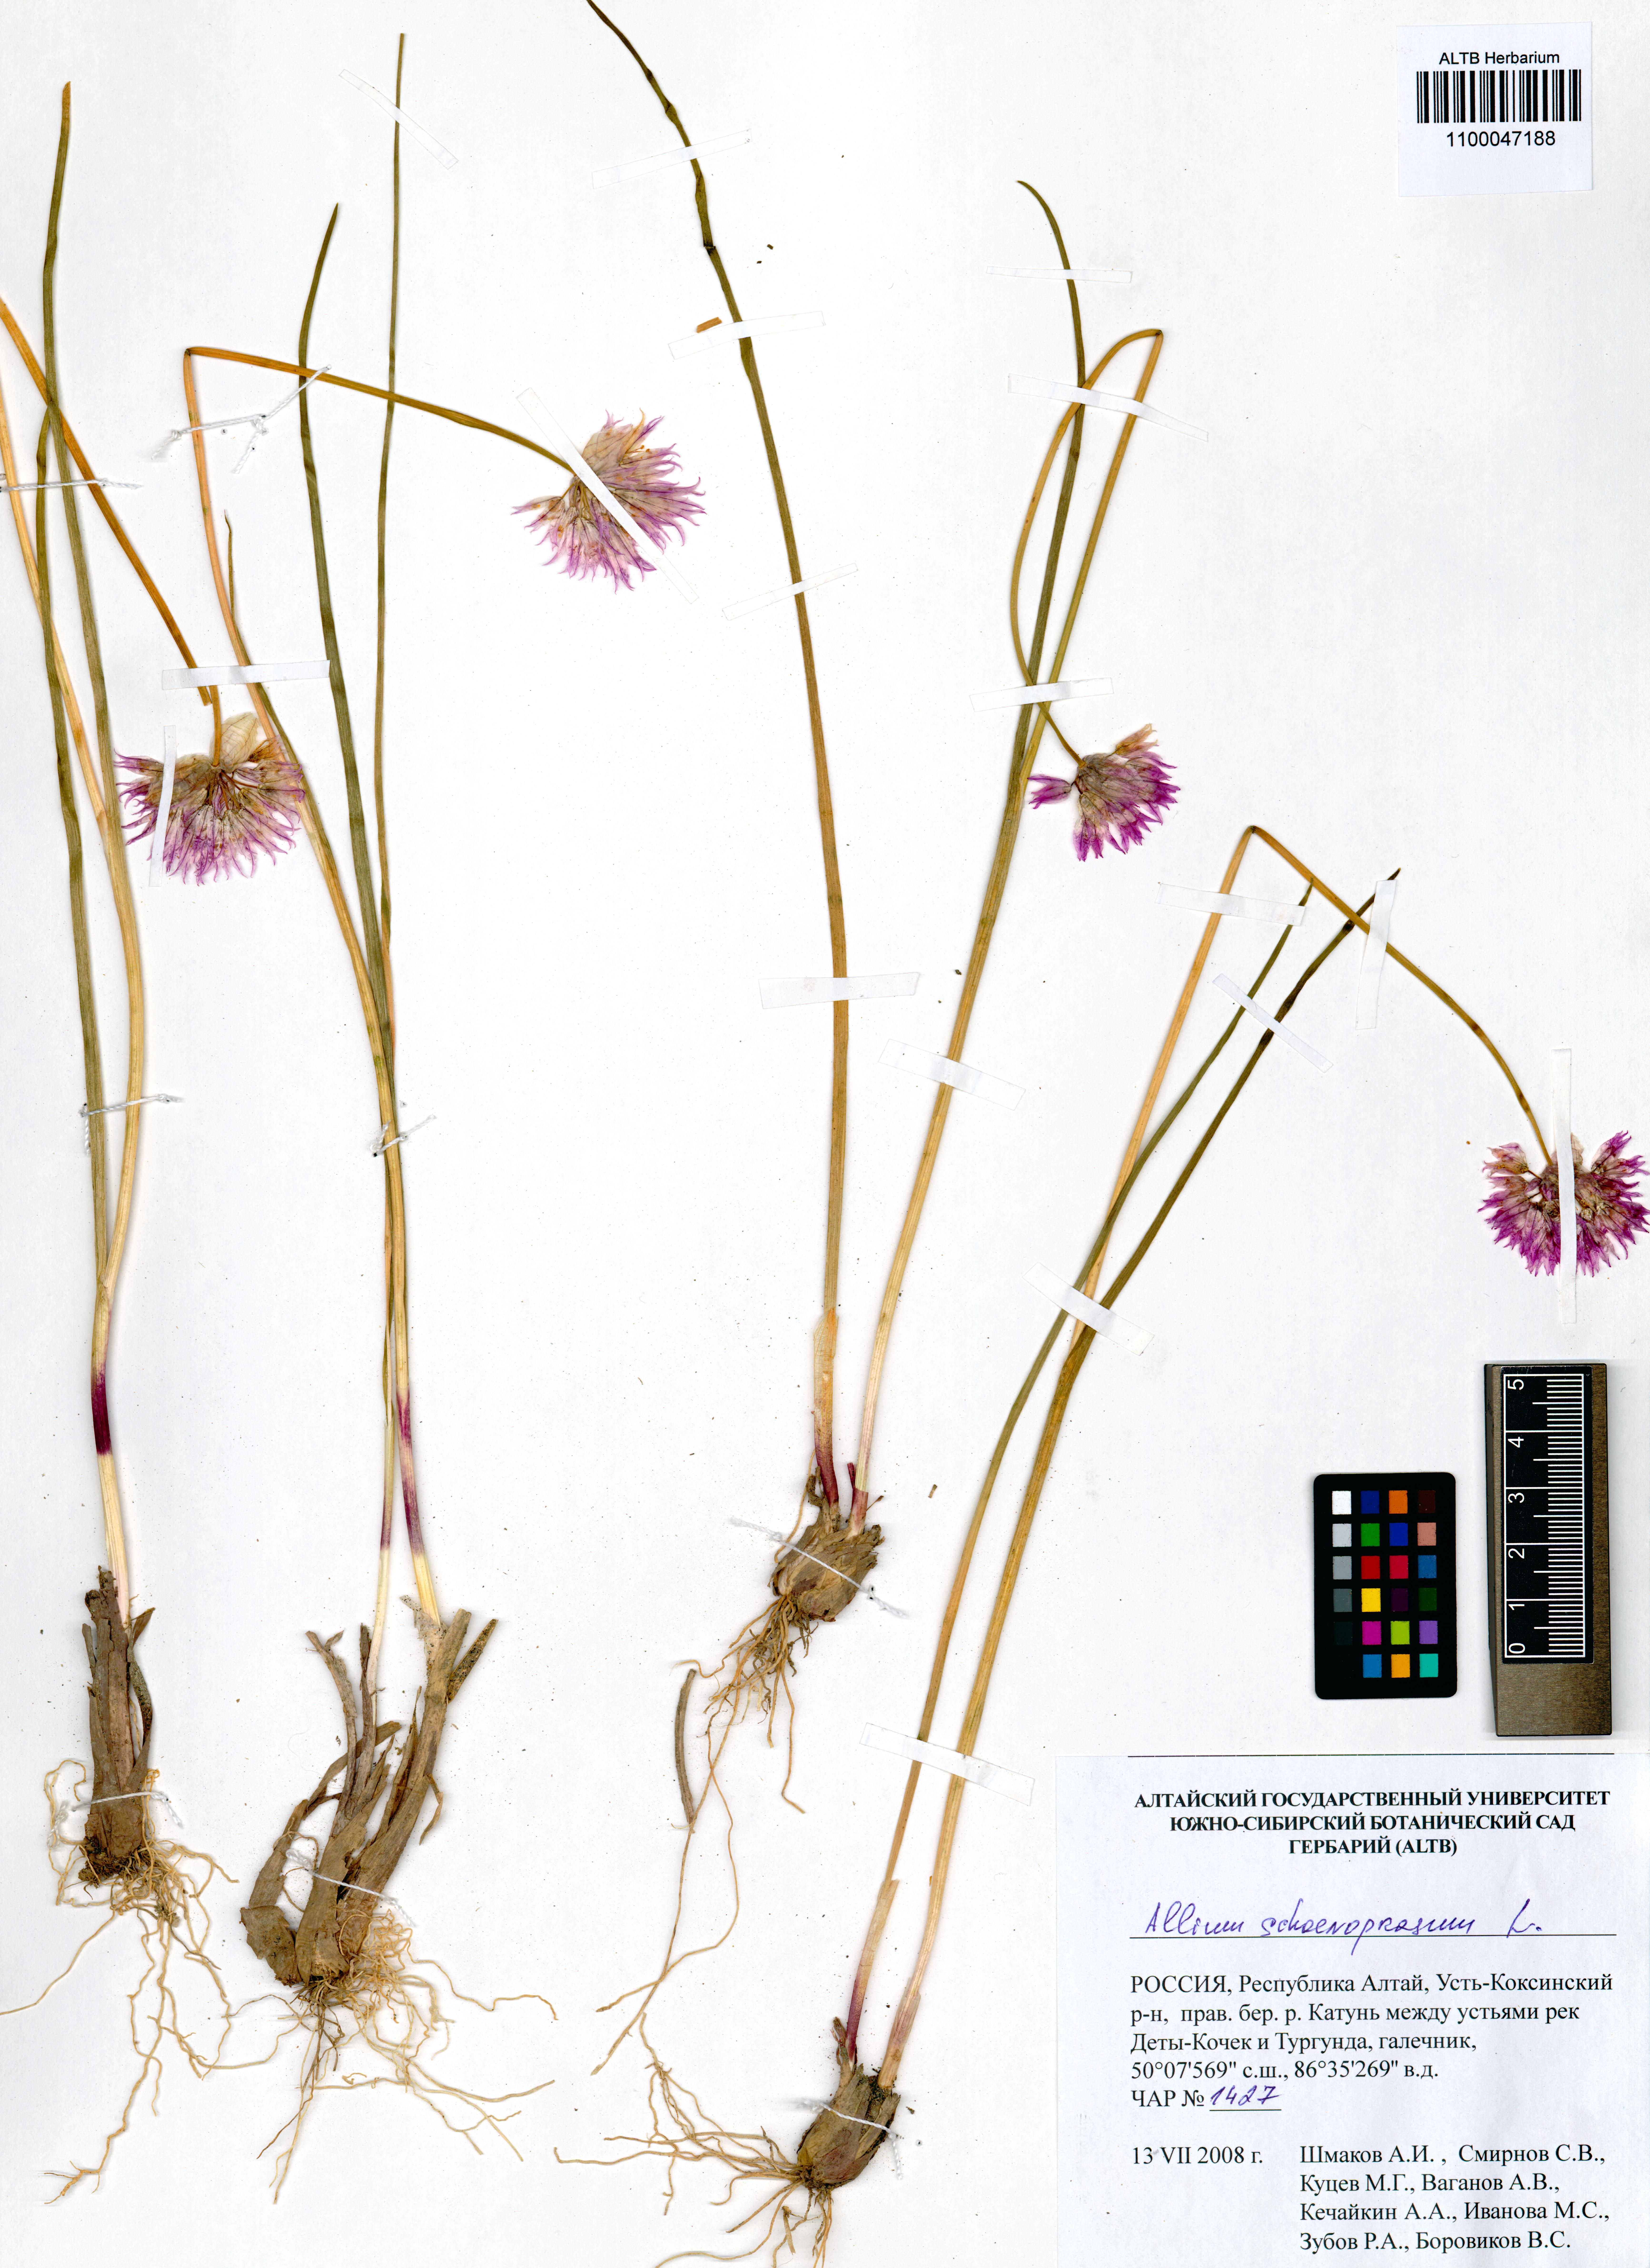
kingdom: Plantae
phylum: Tracheophyta
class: Liliopsida
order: Asparagales
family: Amaryllidaceae
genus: Allium
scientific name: Allium schoenoprasum
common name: Chives
